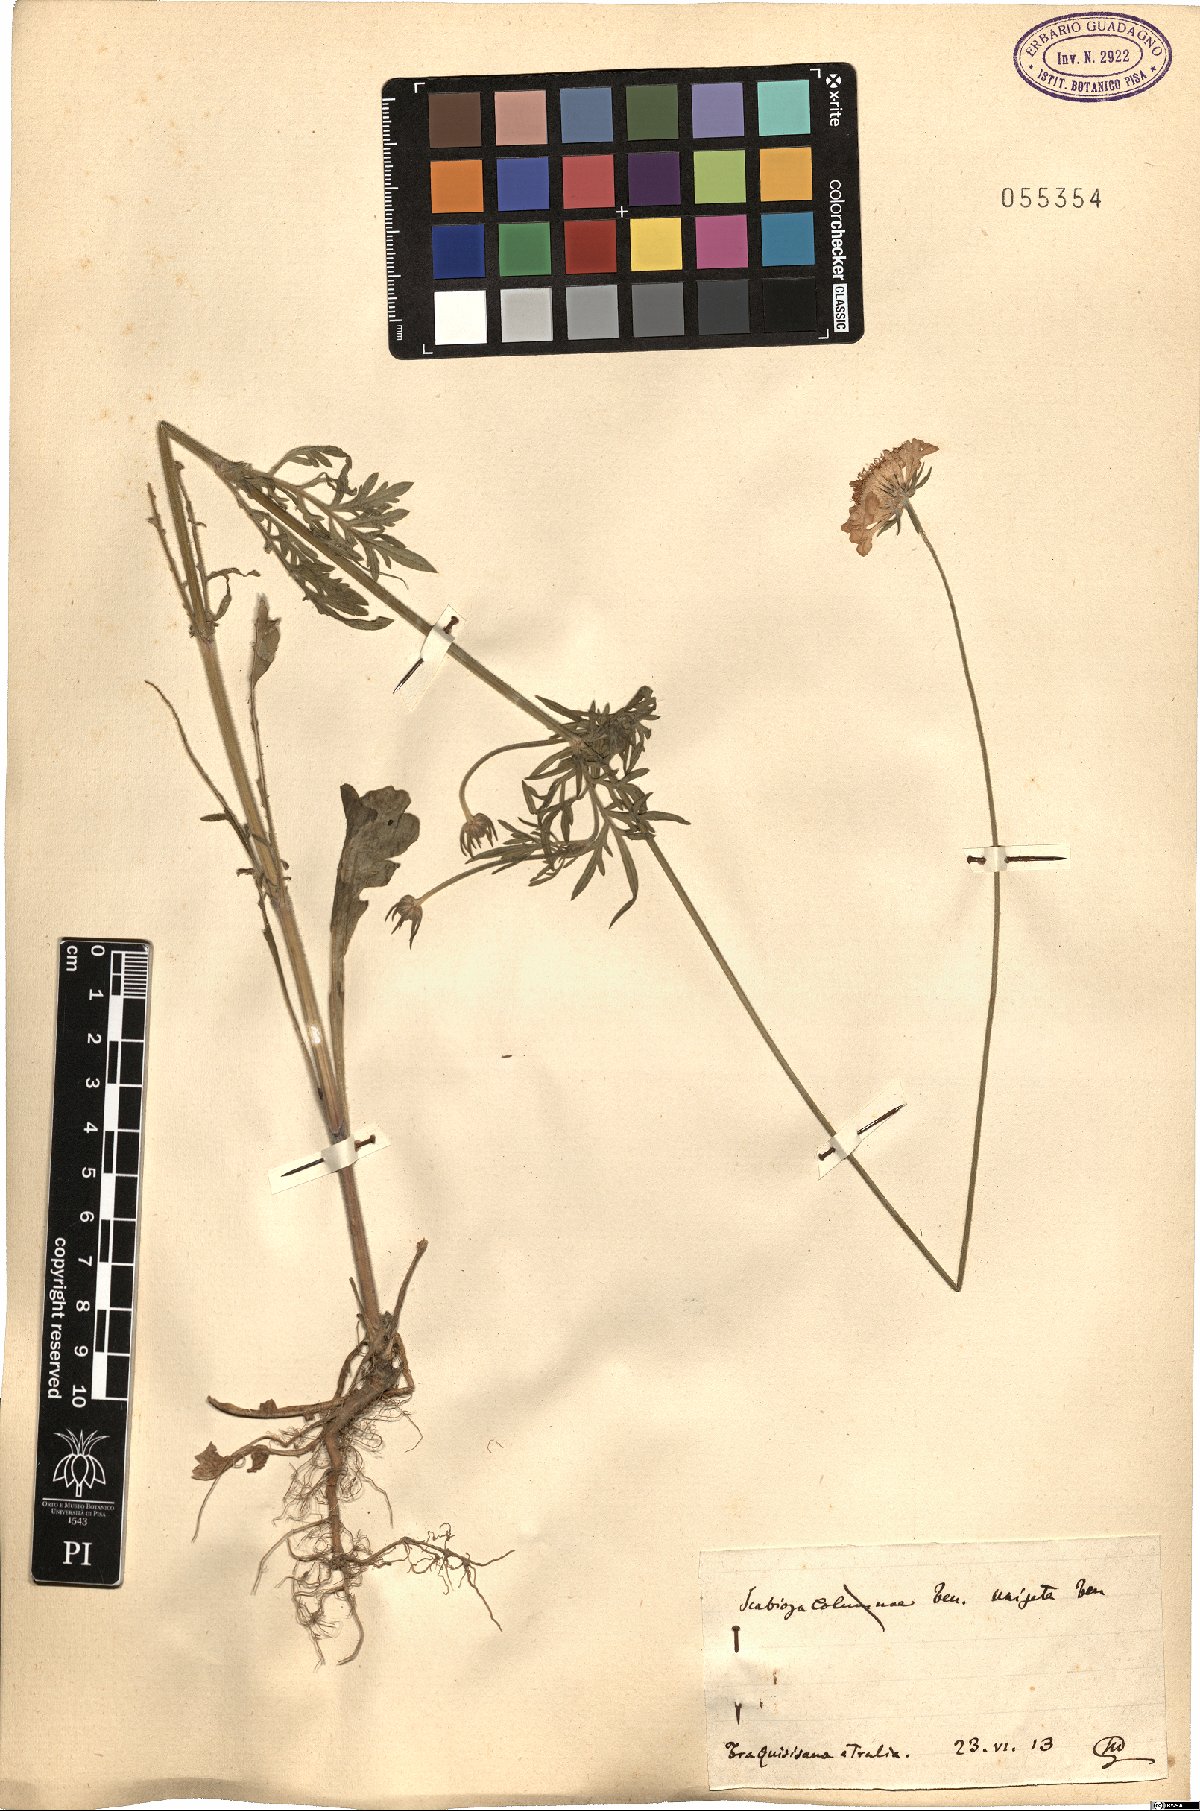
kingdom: Plantae
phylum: Tracheophyta
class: Magnoliopsida
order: Dipsacales
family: Caprifoliaceae
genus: Scabiosa
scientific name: Scabiosa columbaria
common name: Small scabious
